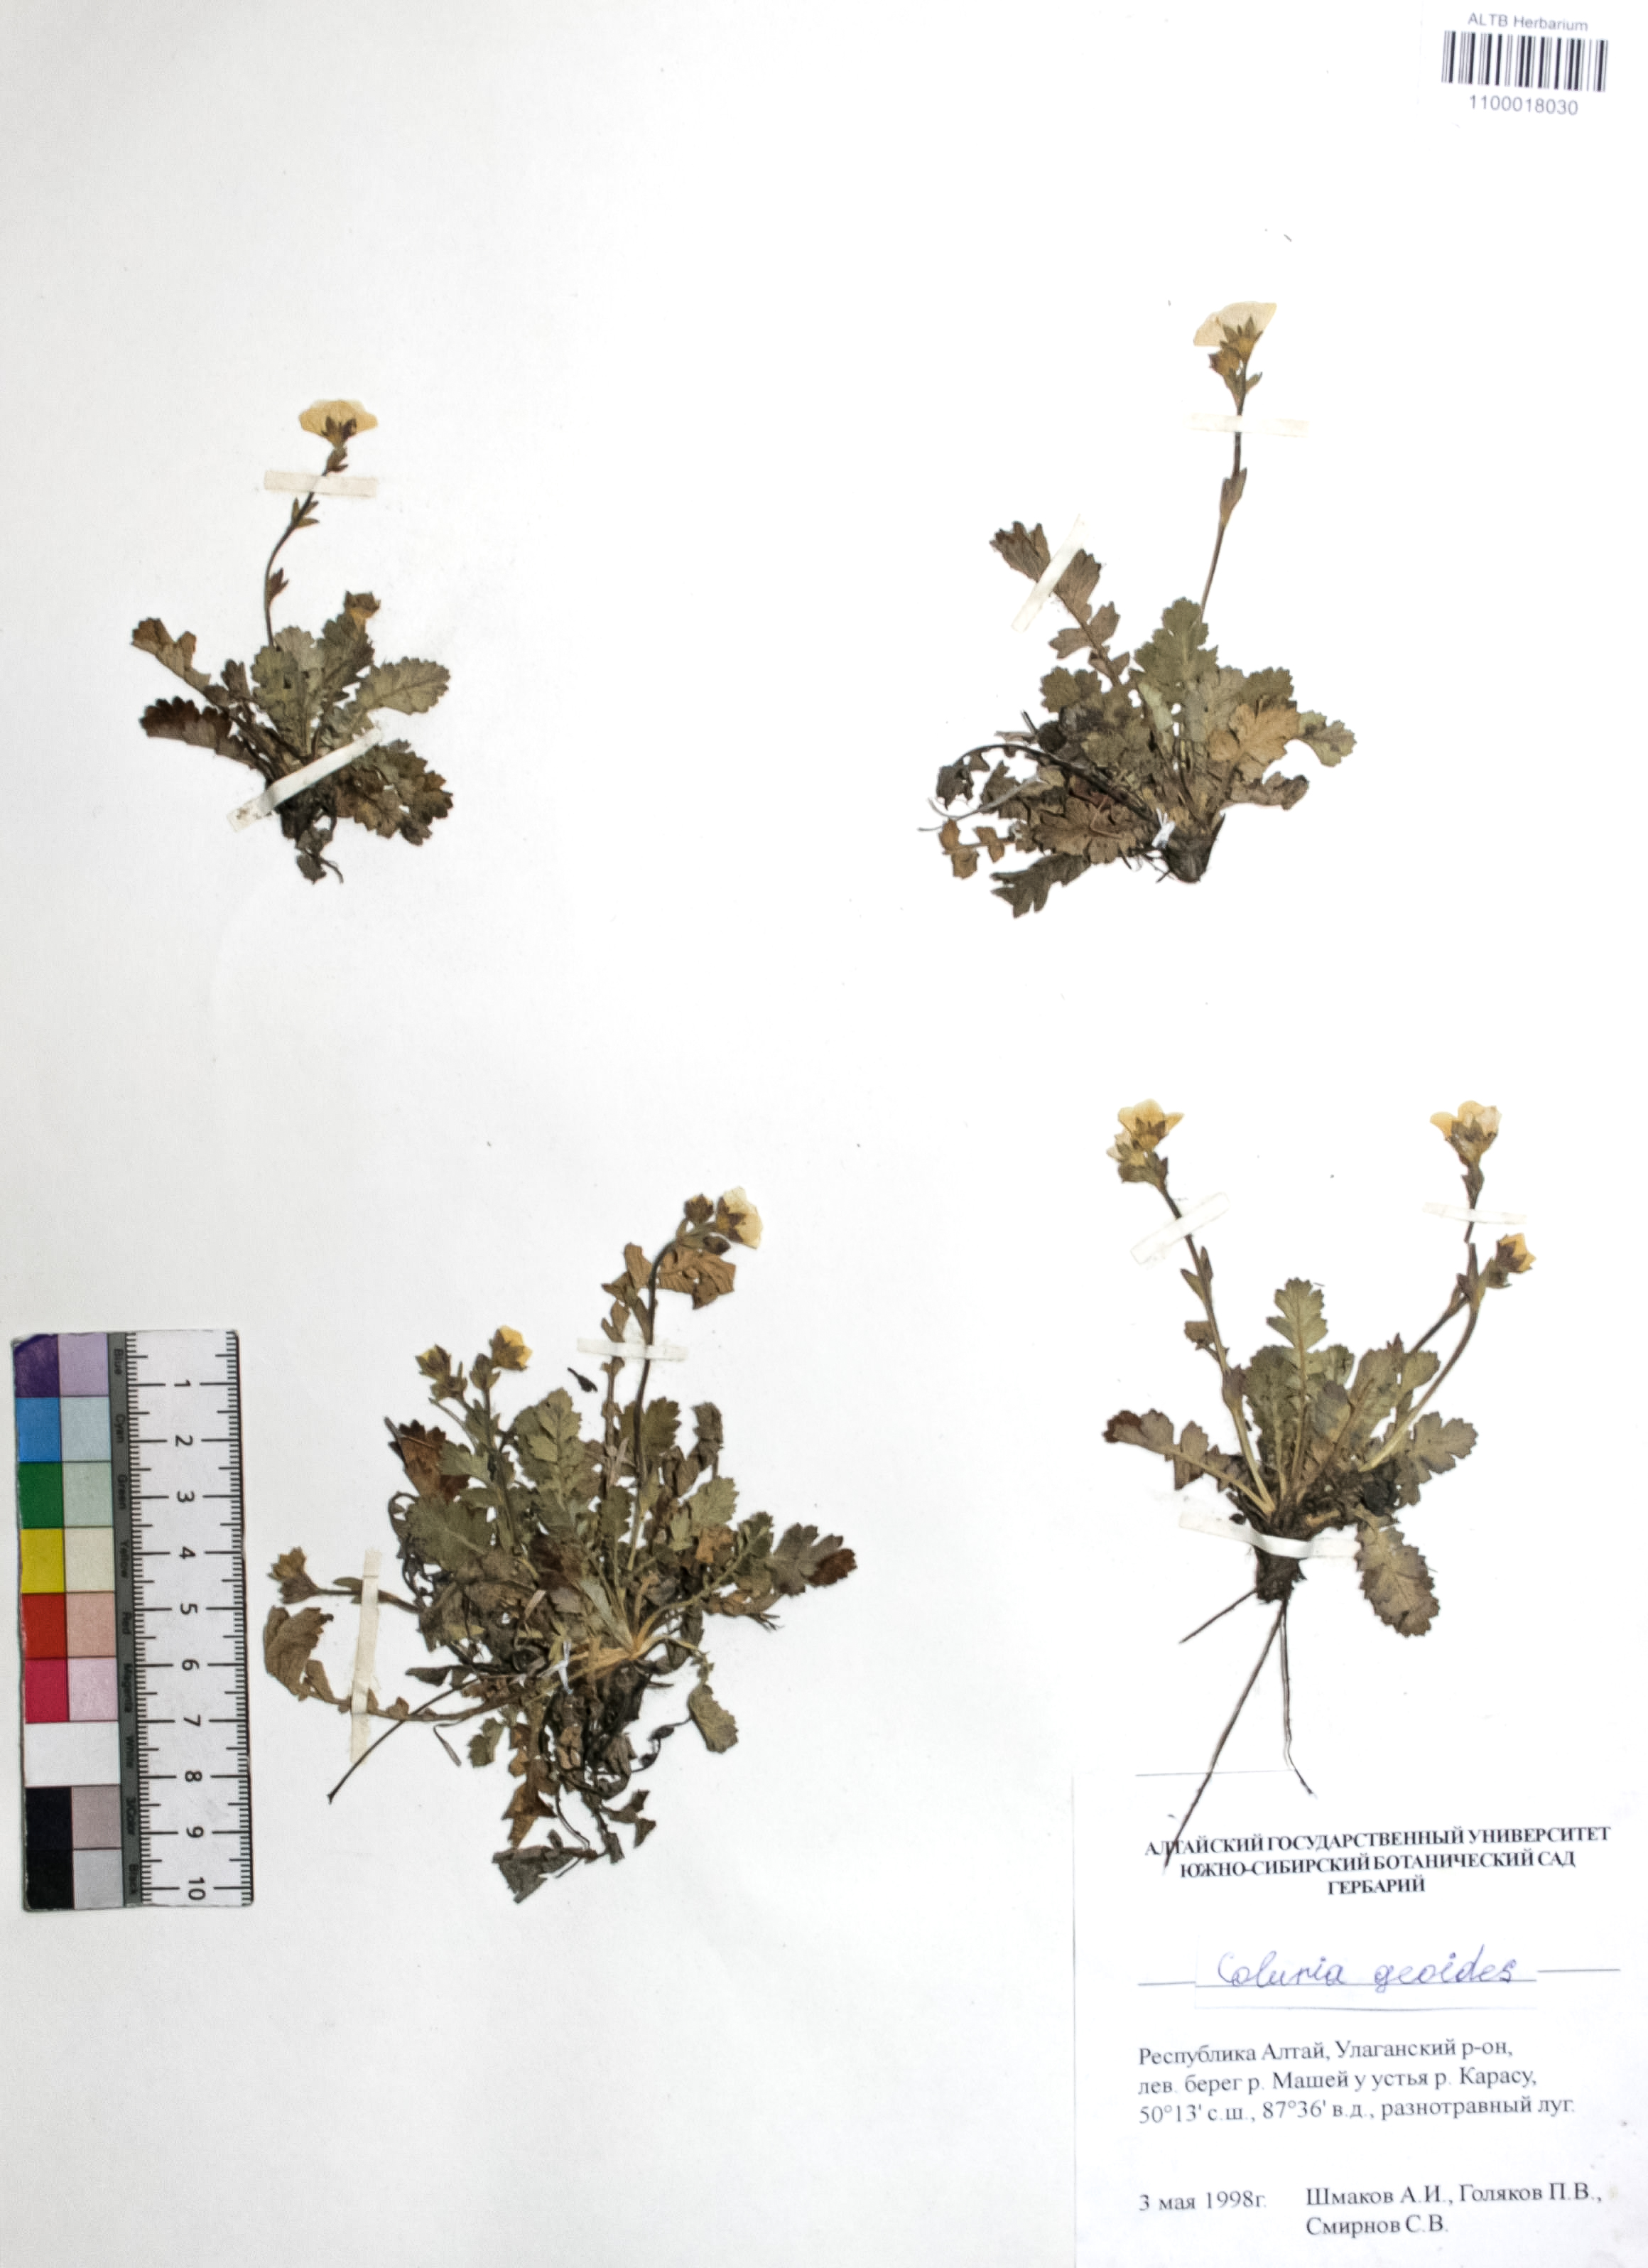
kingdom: Plantae
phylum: Tracheophyta
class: Magnoliopsida
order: Rosales
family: Rosaceae
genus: Geum
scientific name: Geum geoides
